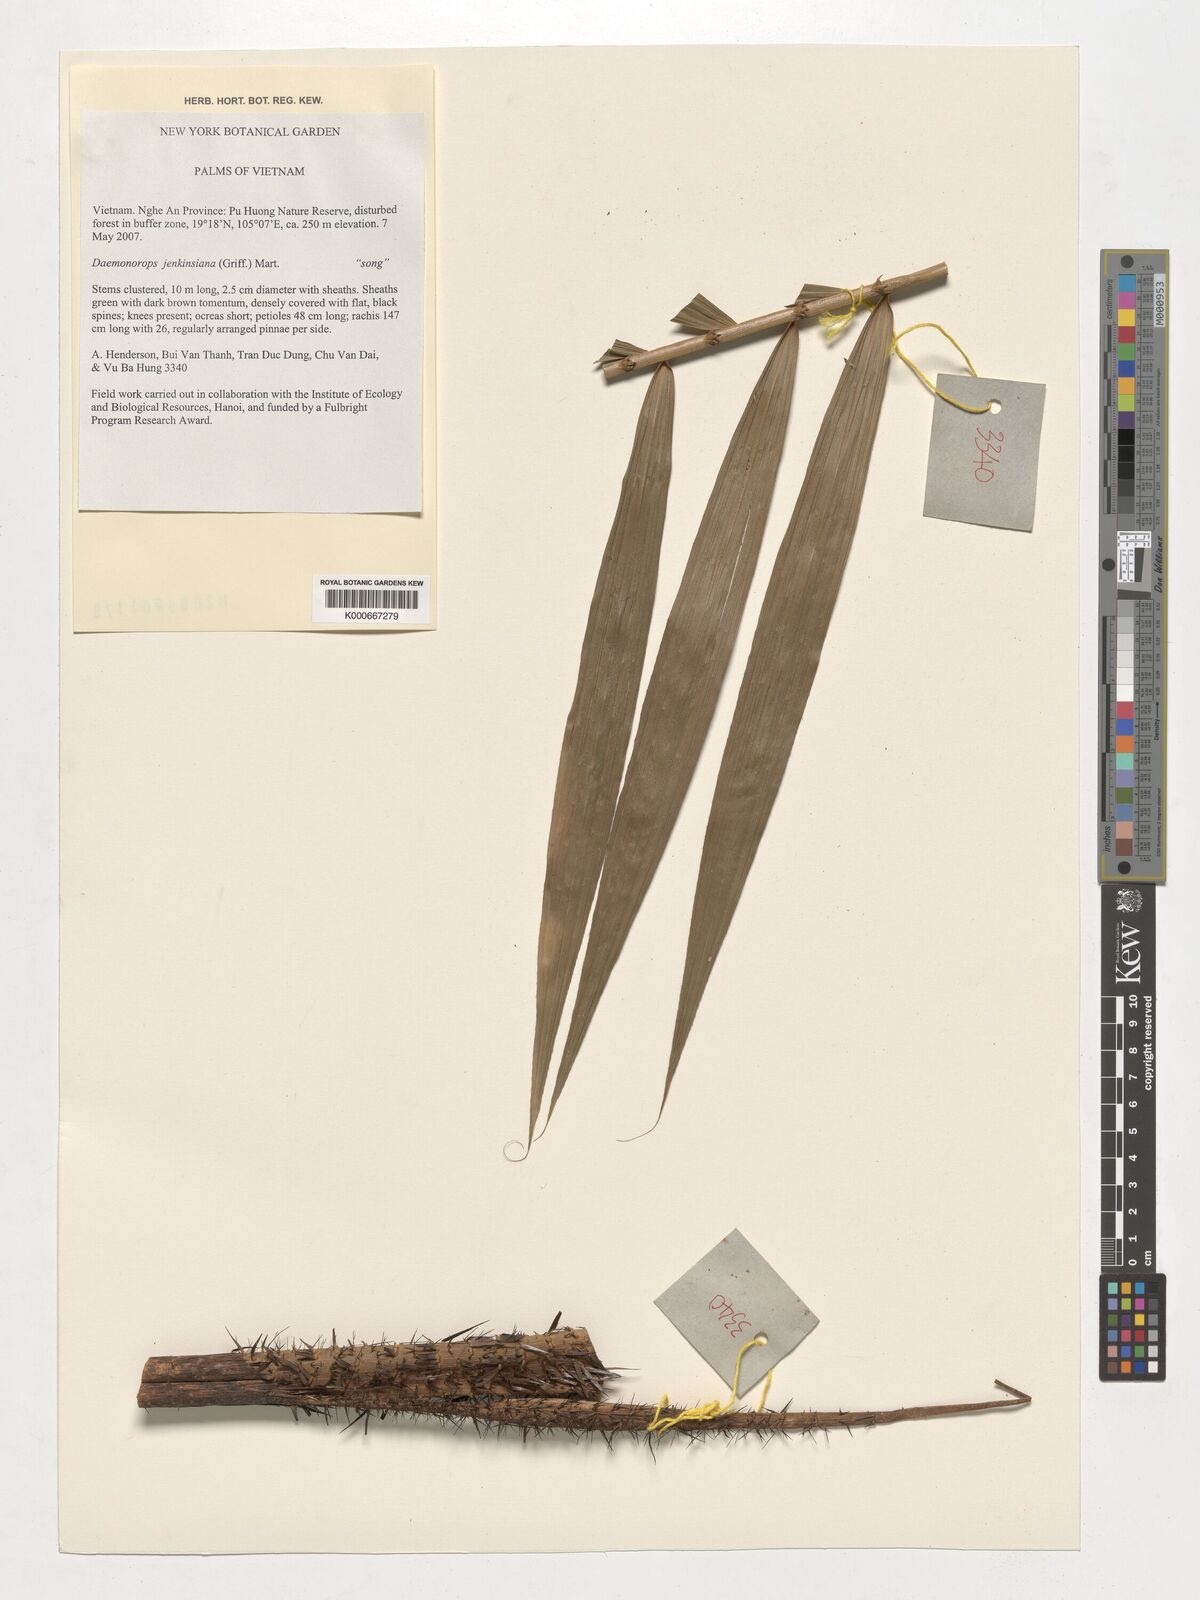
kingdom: Plantae
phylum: Tracheophyta
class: Liliopsida
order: Arecales
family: Arecaceae
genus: Calamus
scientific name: Calamus melanochaetes
